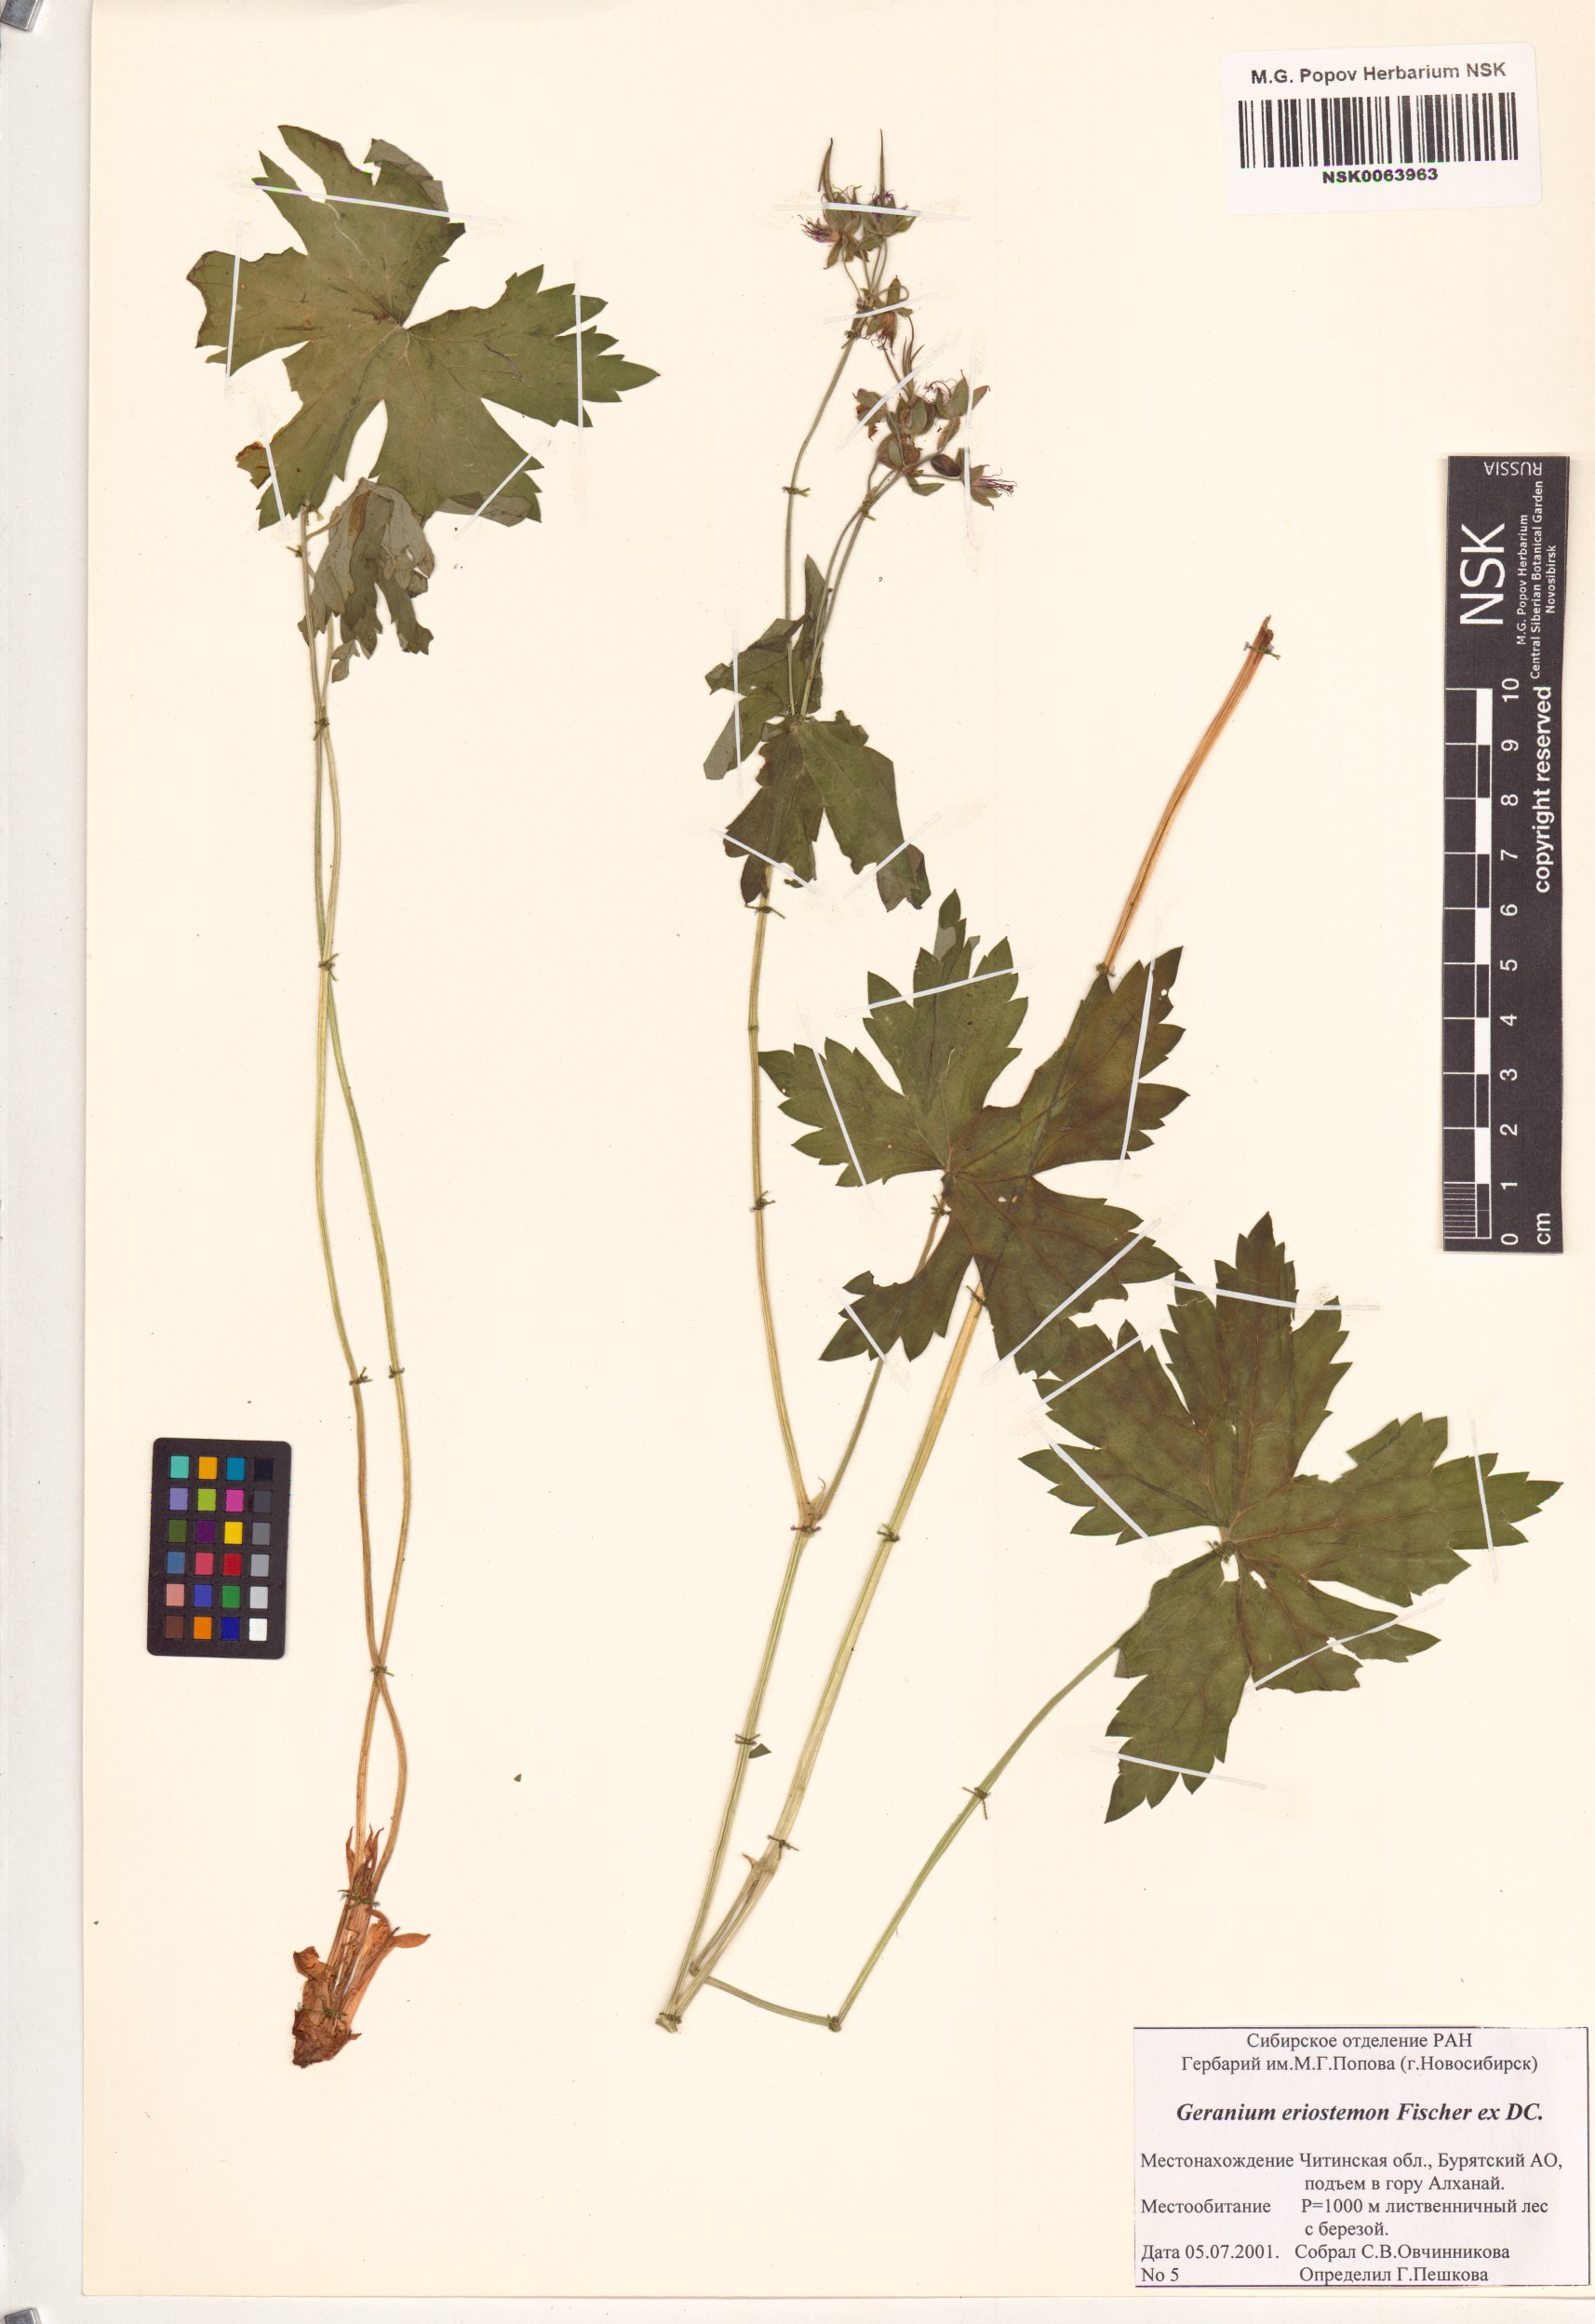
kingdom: Plantae
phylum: Tracheophyta
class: Magnoliopsida
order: Geraniales
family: Geraniaceae
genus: Geranium
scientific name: Geranium platyanthum
